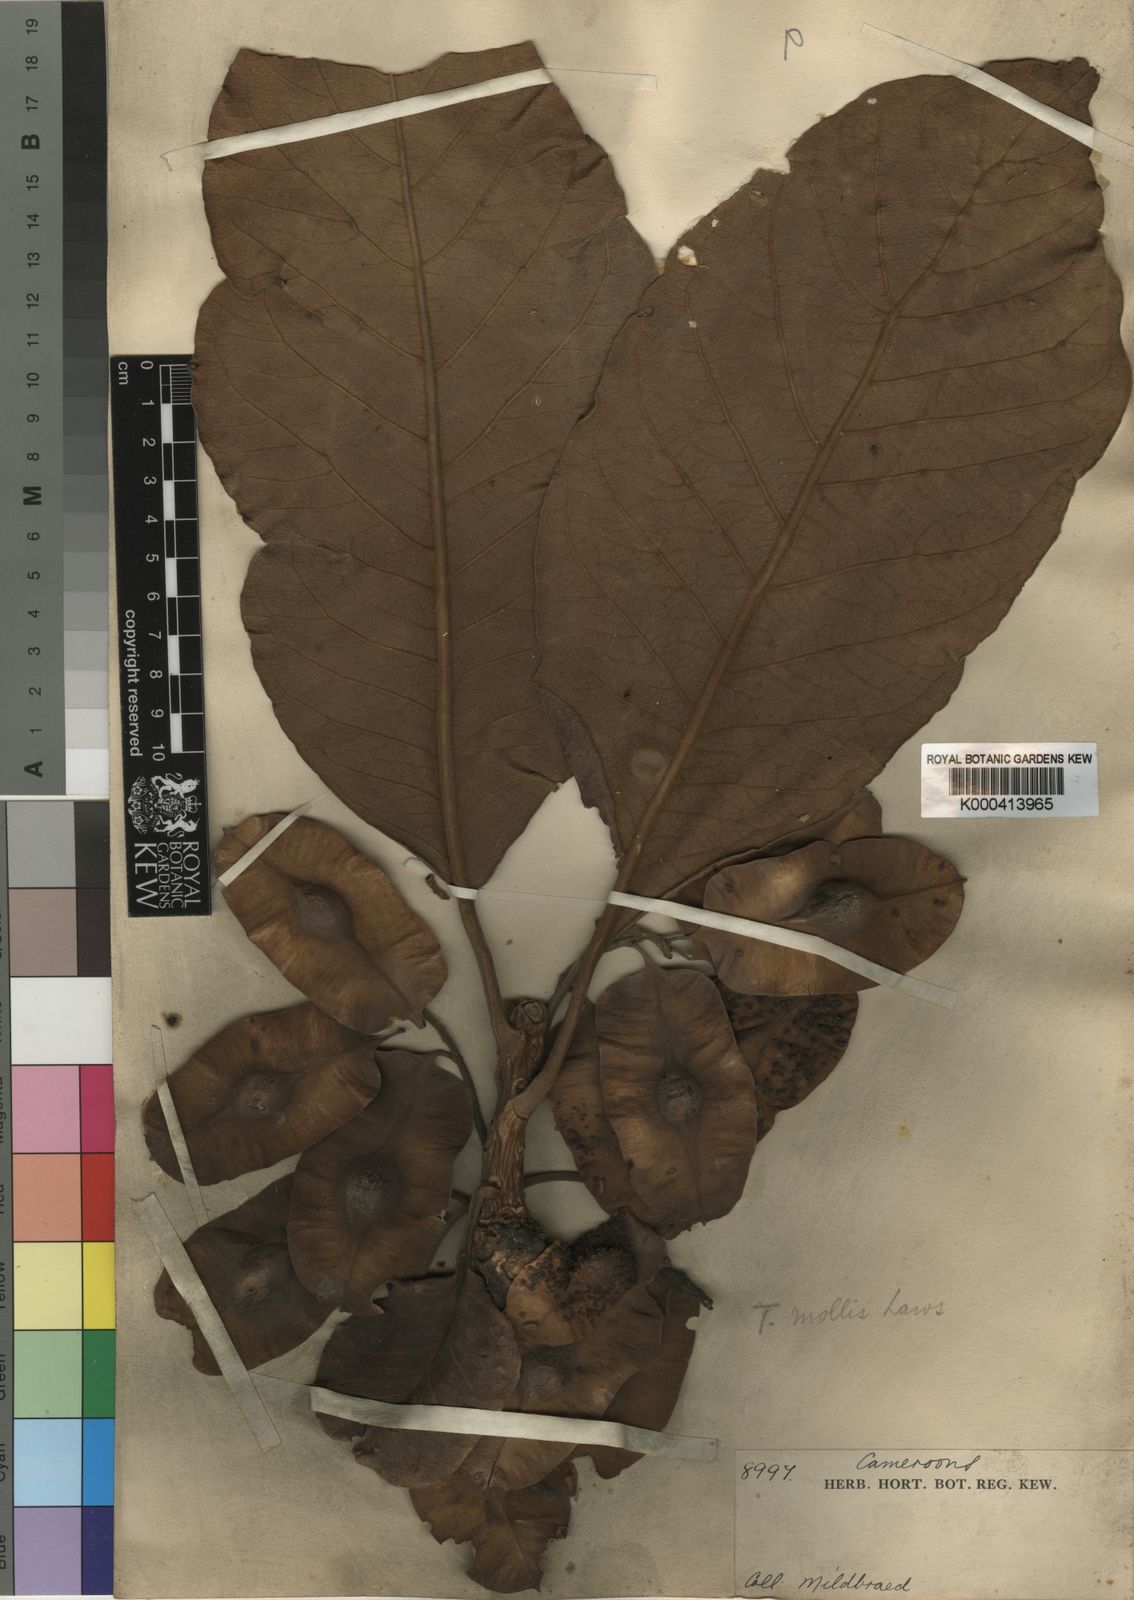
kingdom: Plantae
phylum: Tracheophyta
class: Magnoliopsida
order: Myrtales
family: Combretaceae
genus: Terminalia
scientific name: Terminalia mollis
